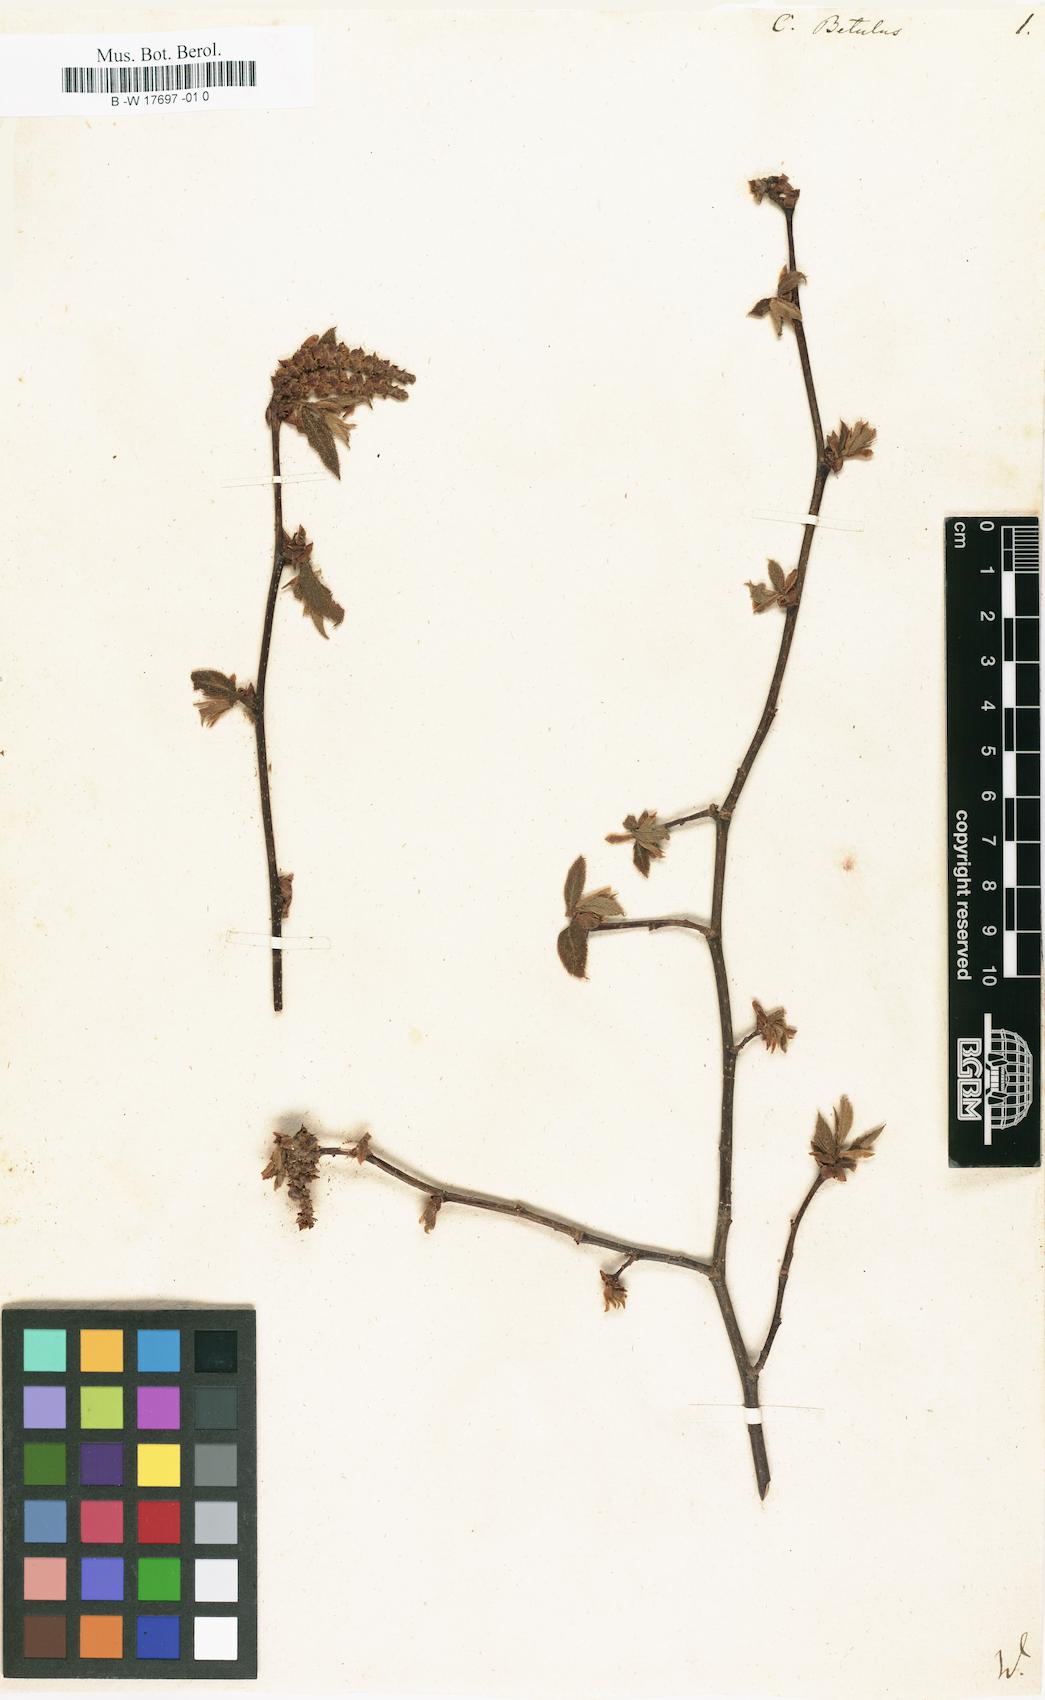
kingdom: Plantae
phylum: Tracheophyta
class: Magnoliopsida
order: Fagales
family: Betulaceae
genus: Carpinus
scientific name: Carpinus betulus
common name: Hornbeam
